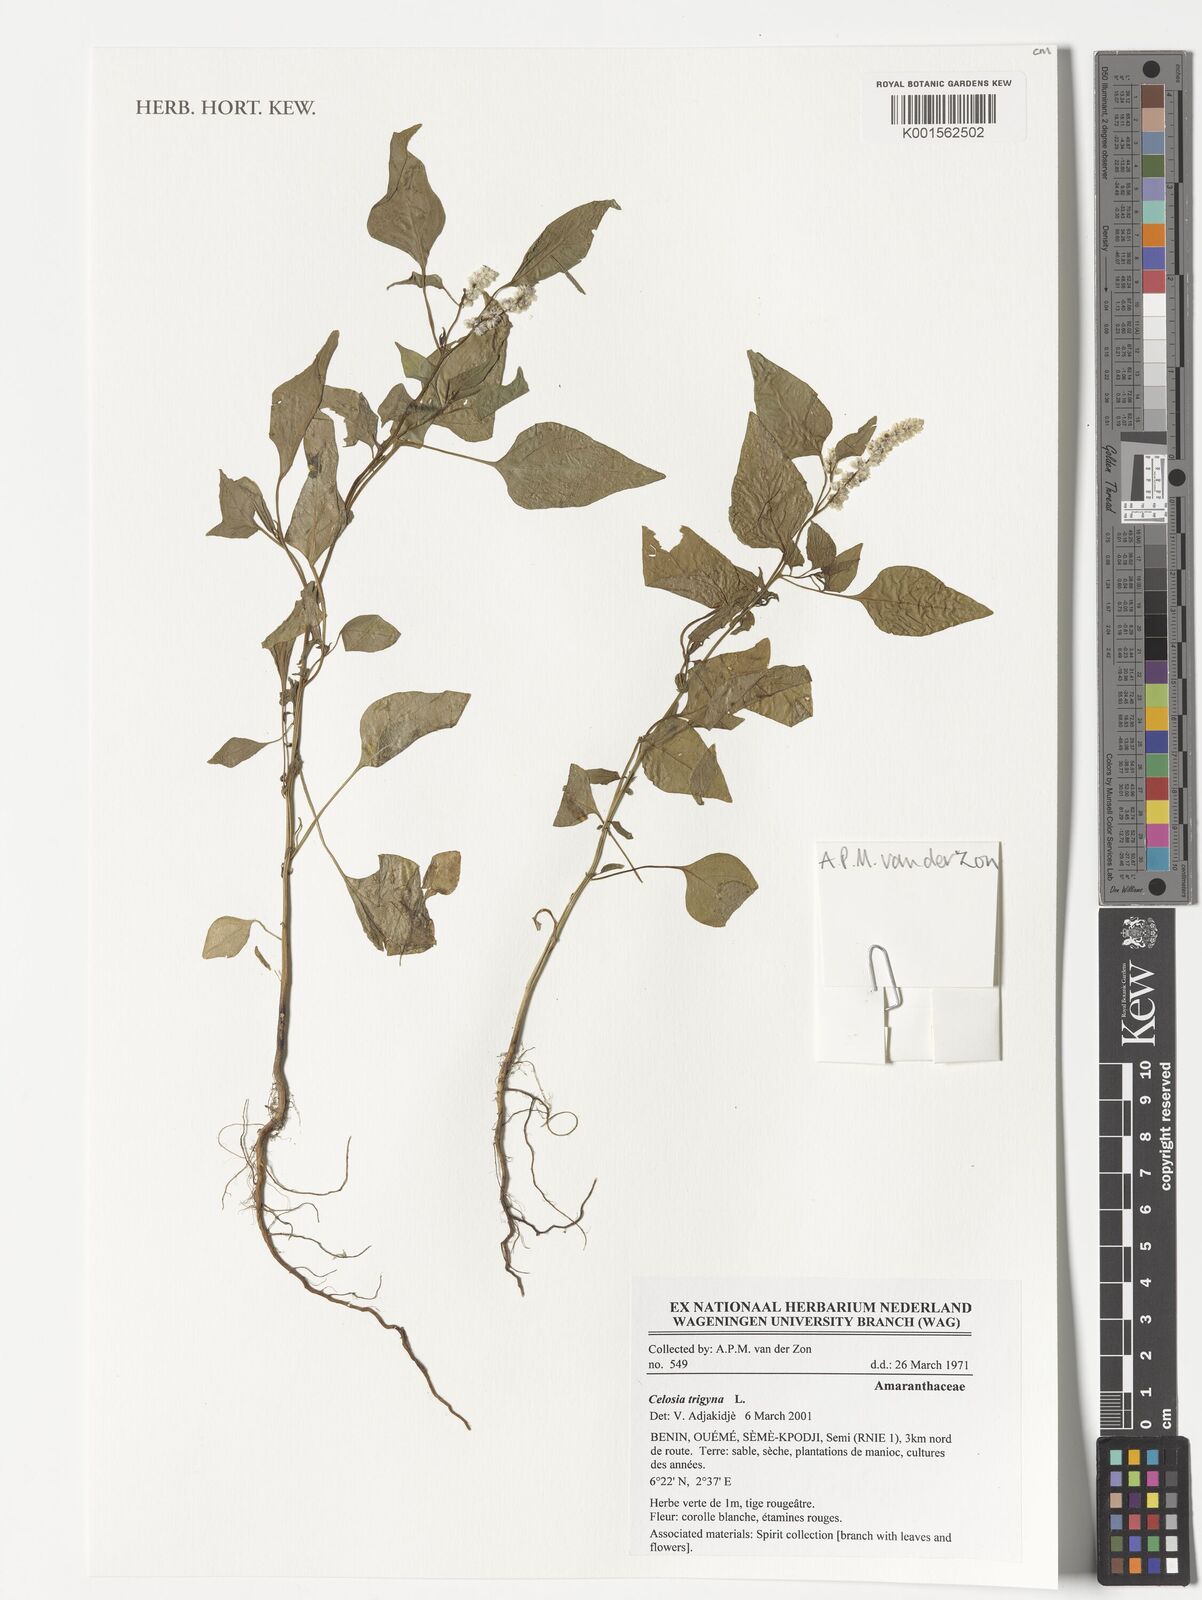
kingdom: Plantae
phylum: Tracheophyta
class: Magnoliopsida
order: Caryophyllales
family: Amaranthaceae
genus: Celosia
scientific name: Celosia trigyna
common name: Woolflower
